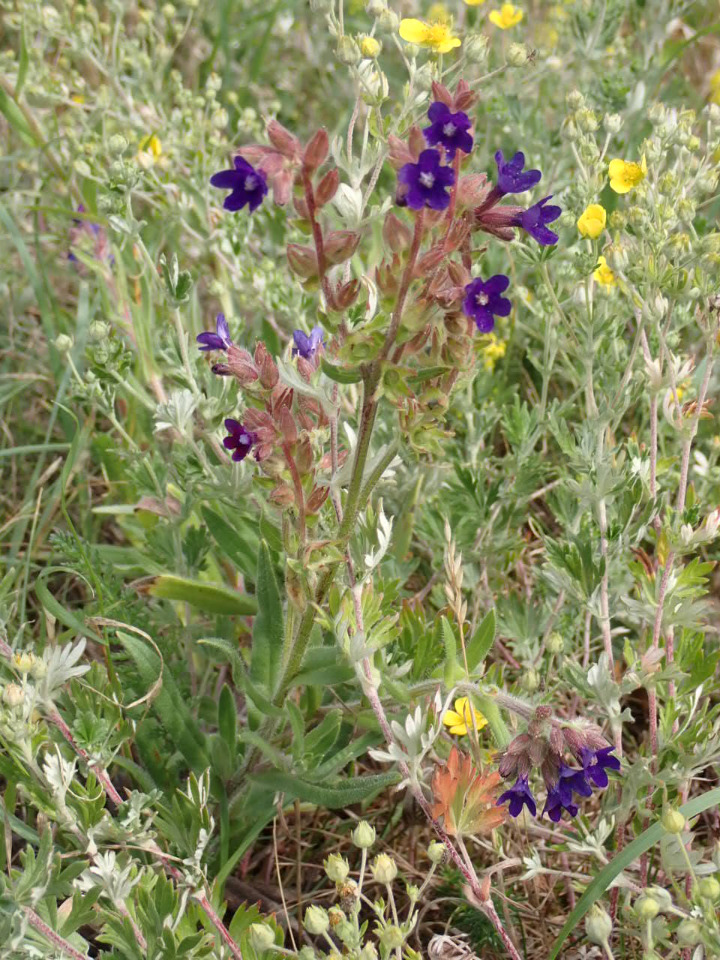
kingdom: Plantae
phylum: Tracheophyta
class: Magnoliopsida
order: Boraginales
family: Boraginaceae
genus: Anchusa
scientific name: Anchusa officinalis
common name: Læge-oksetunge
